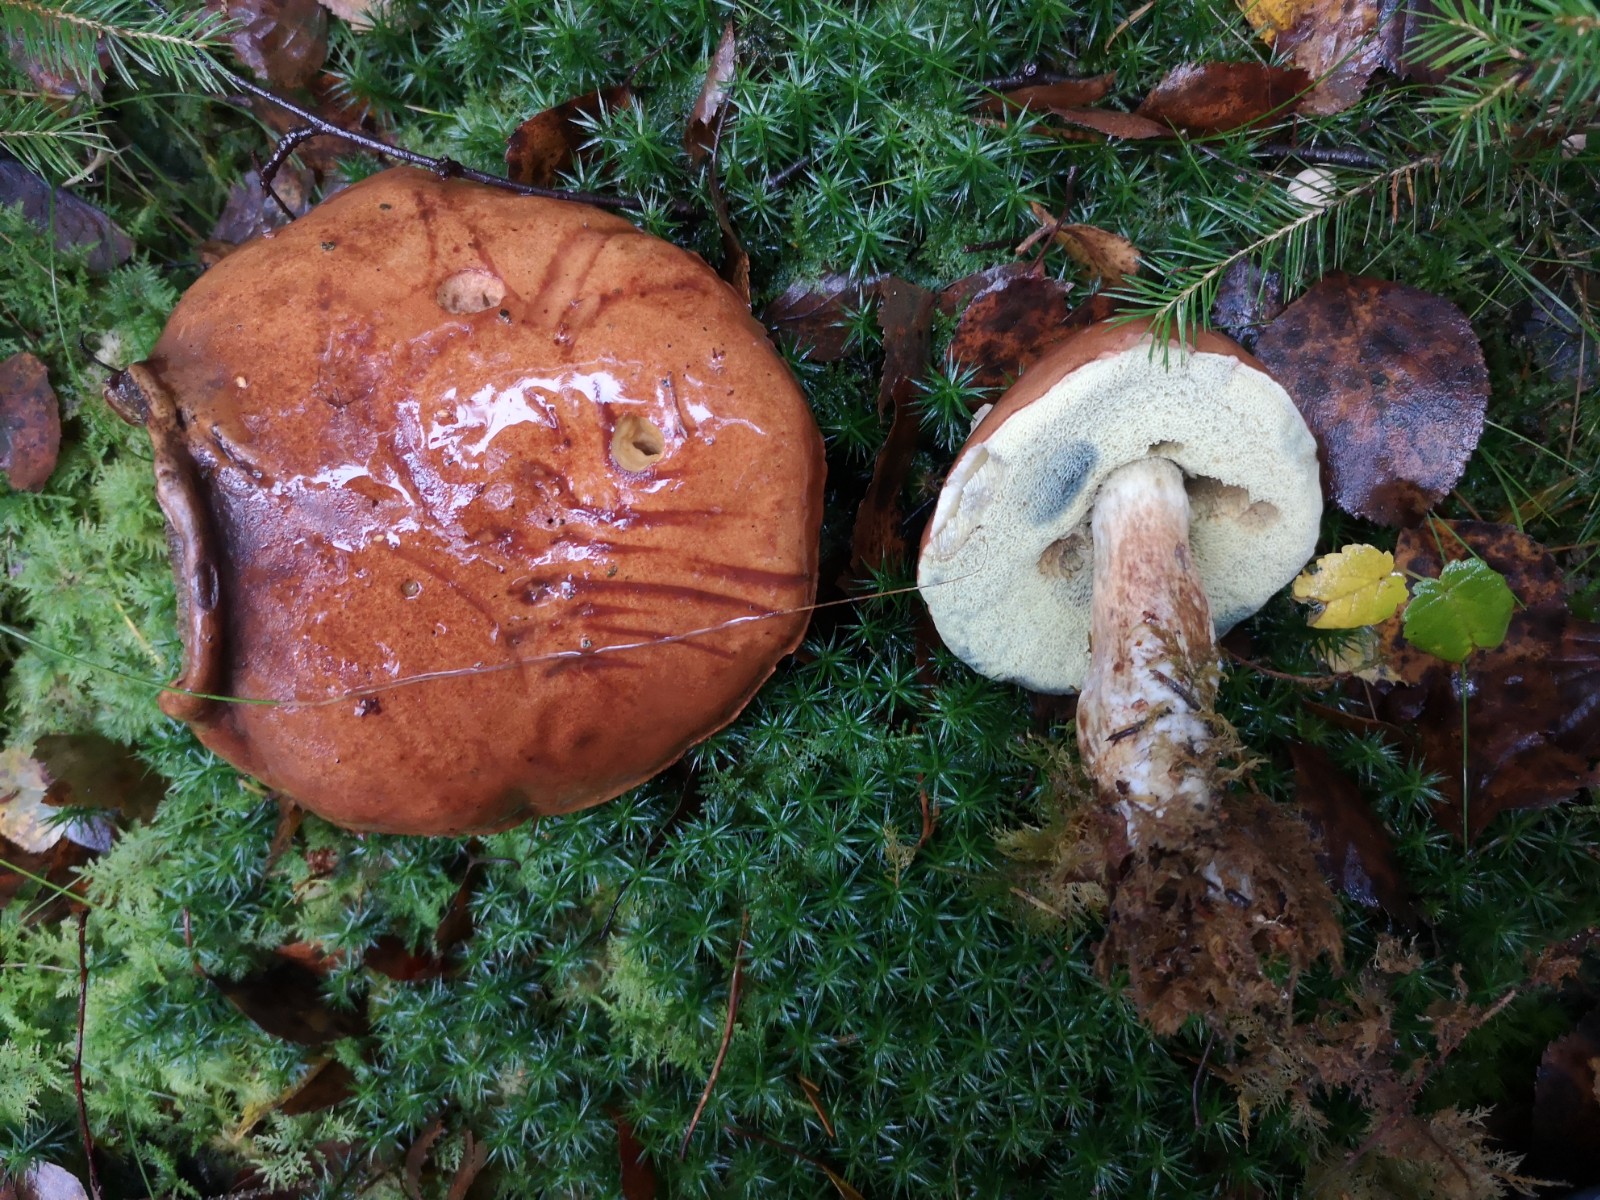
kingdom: Fungi
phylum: Basidiomycota
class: Agaricomycetes
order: Boletales
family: Boletaceae
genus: Imleria
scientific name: Imleria badia
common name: brunstokket rørhat
